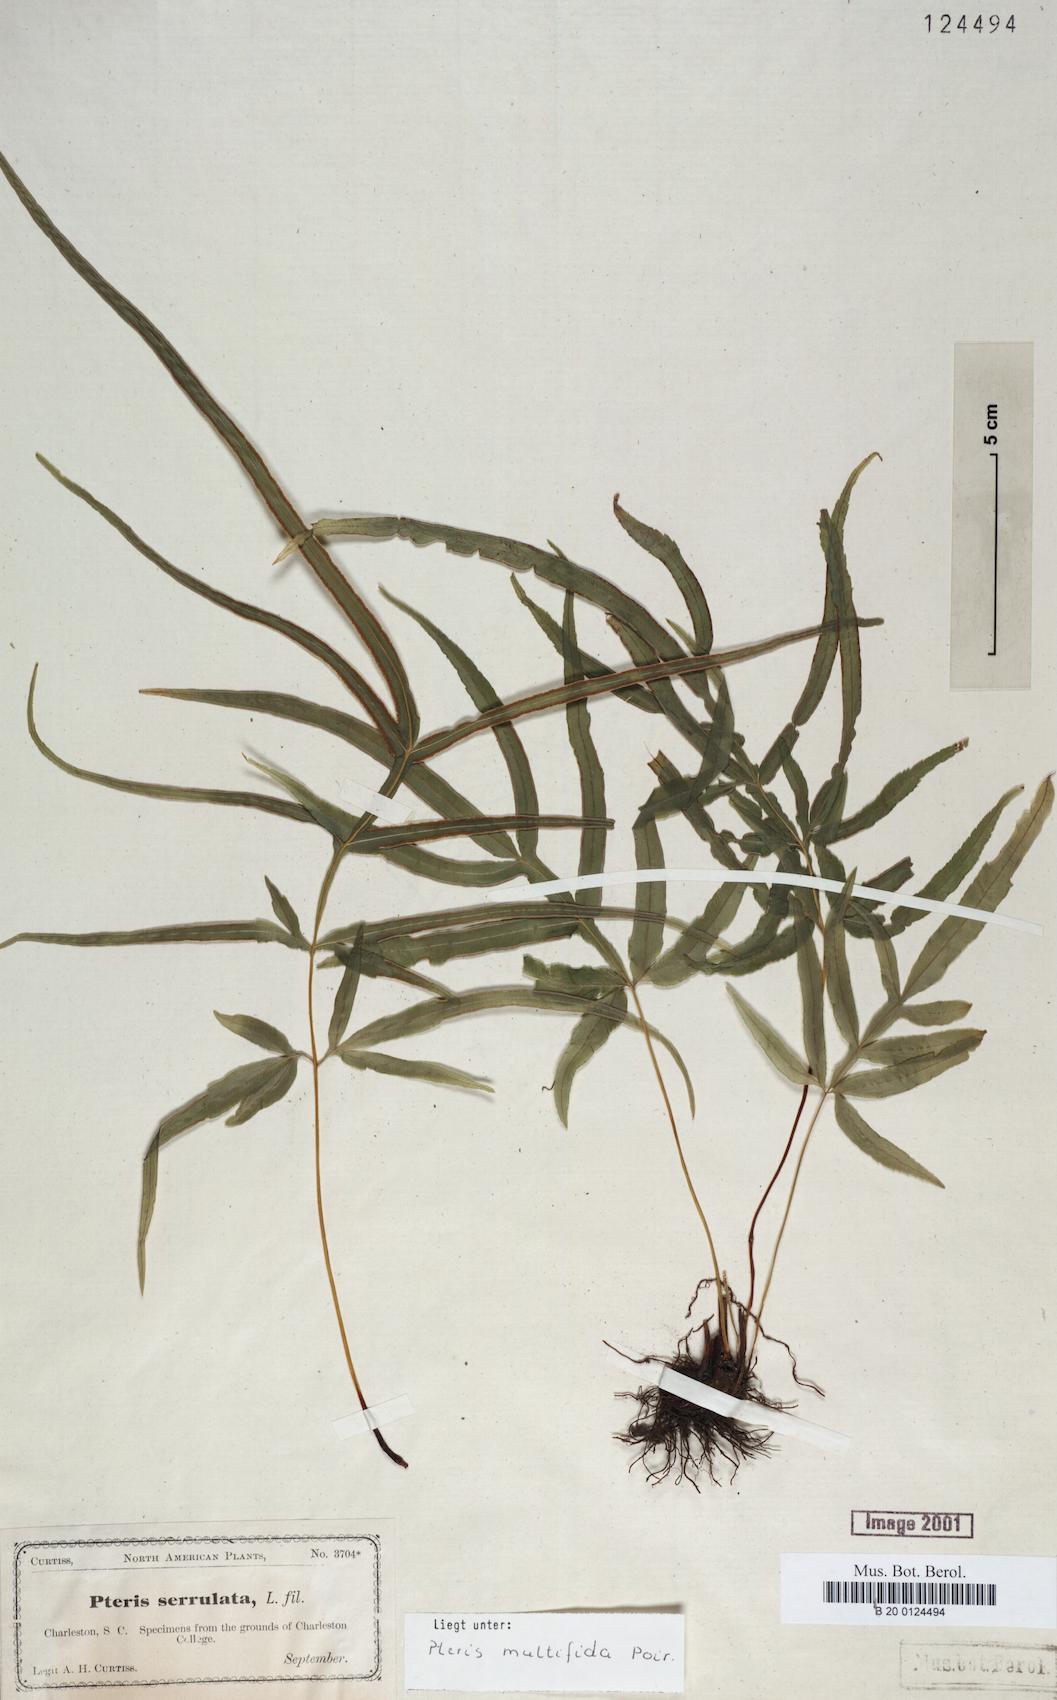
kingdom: Plantae
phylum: Tracheophyta
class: Polypodiopsida
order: Polypodiales
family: Pteridaceae
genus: Pteris
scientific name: Pteris multifida
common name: Spider brake
